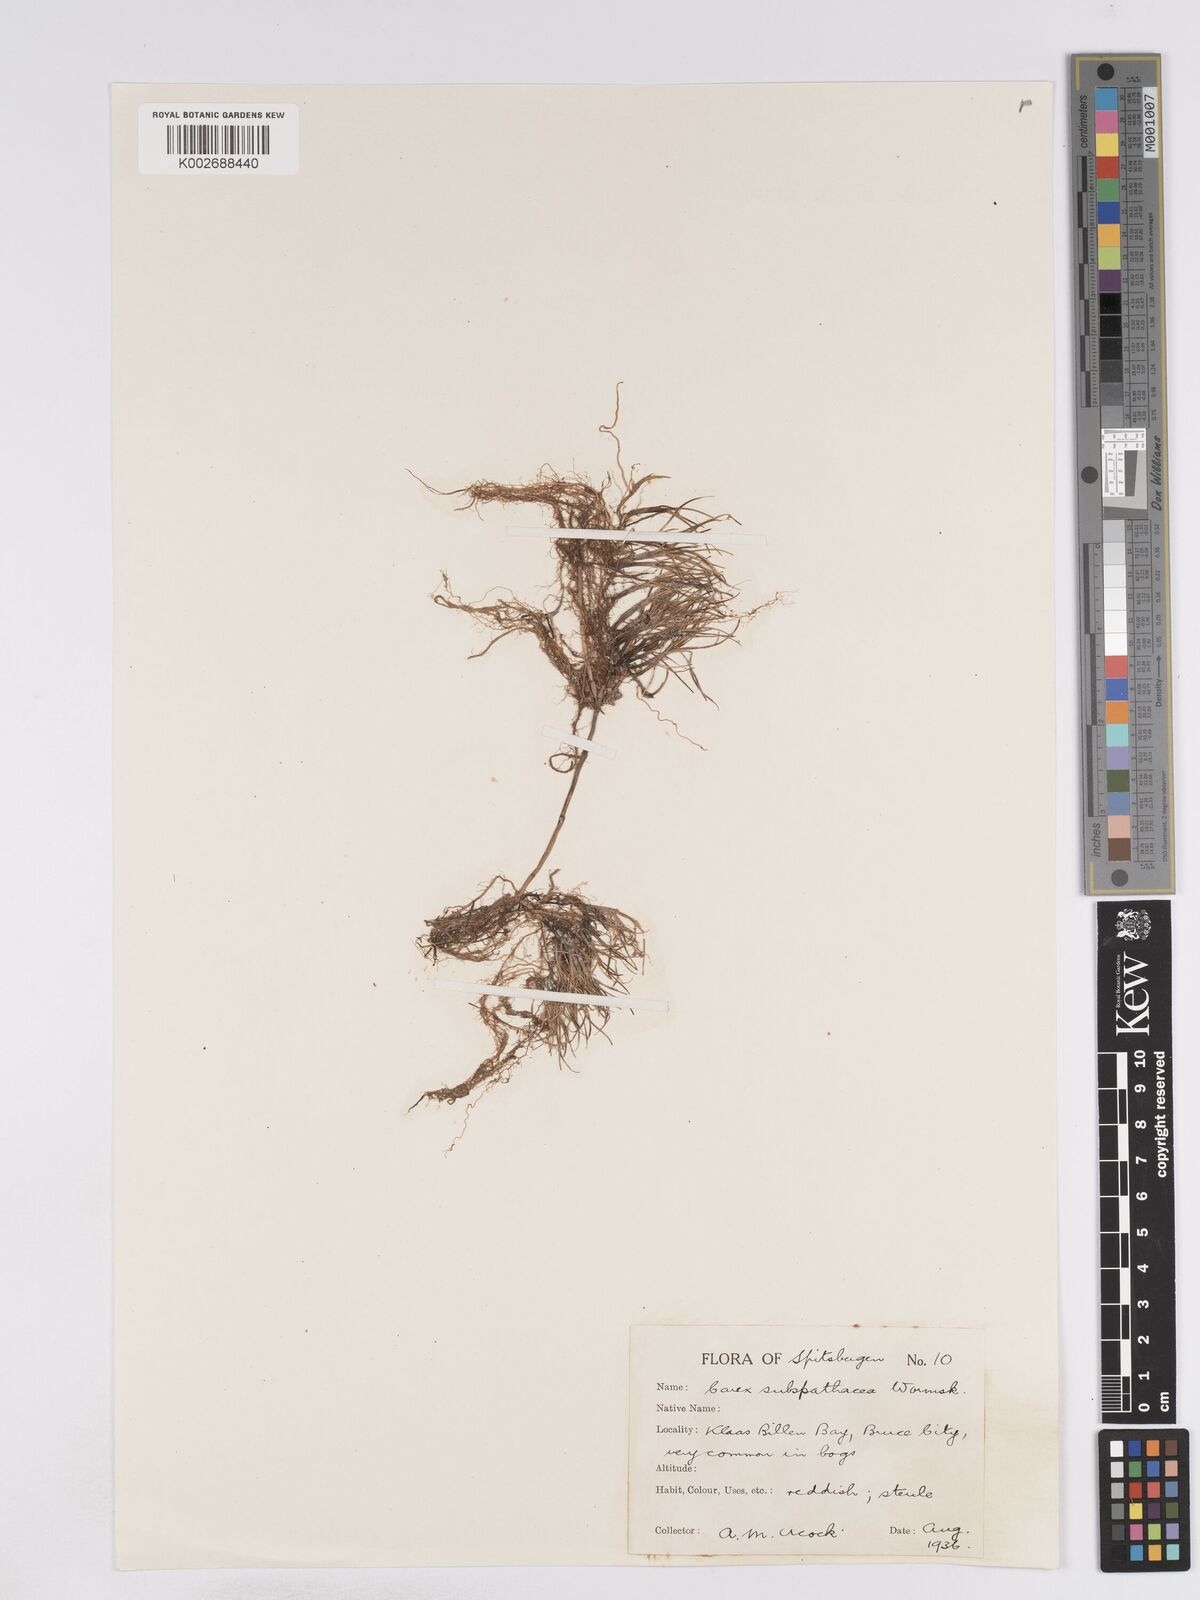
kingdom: Plantae
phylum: Tracheophyta
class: Liliopsida
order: Poales
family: Cyperaceae
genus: Carex
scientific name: Carex subspathacea
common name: Hoppner's sedge
